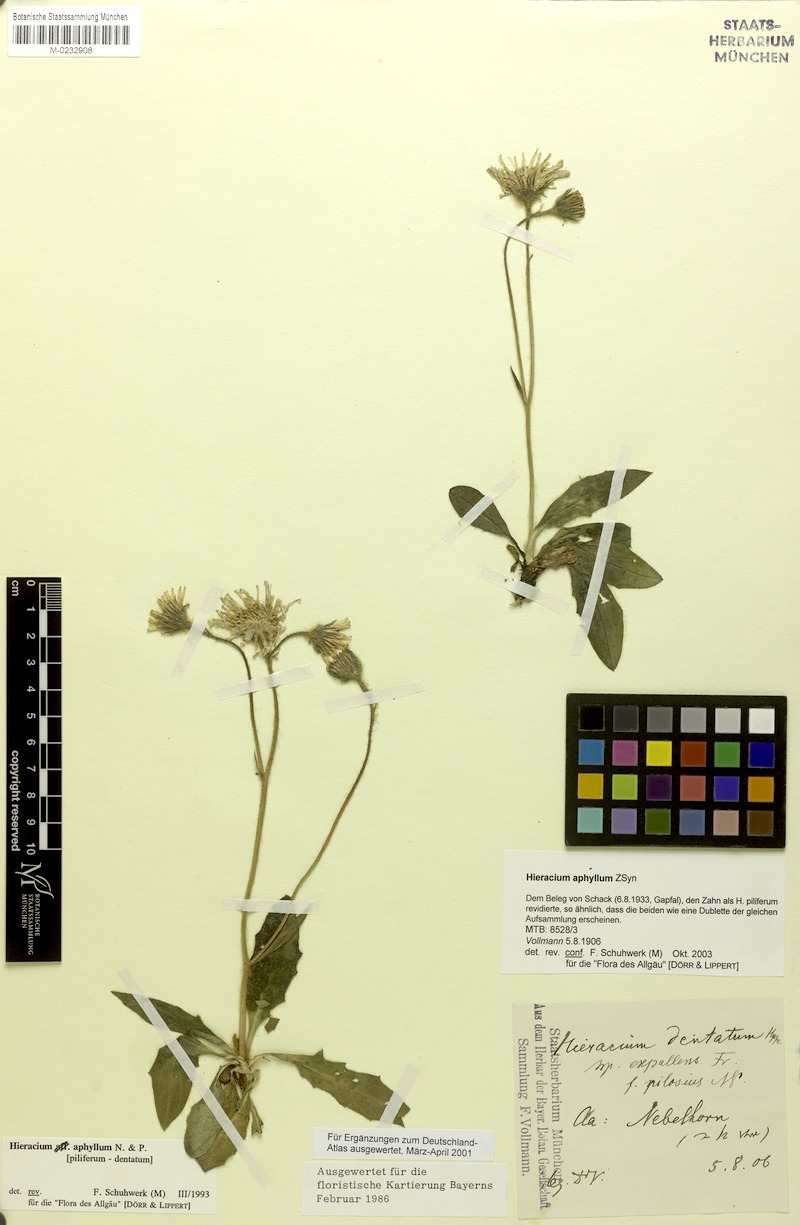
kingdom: Plantae
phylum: Tracheophyta
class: Magnoliopsida
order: Asterales
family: Asteraceae
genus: Hieracium
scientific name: Hieracium aphyllum
